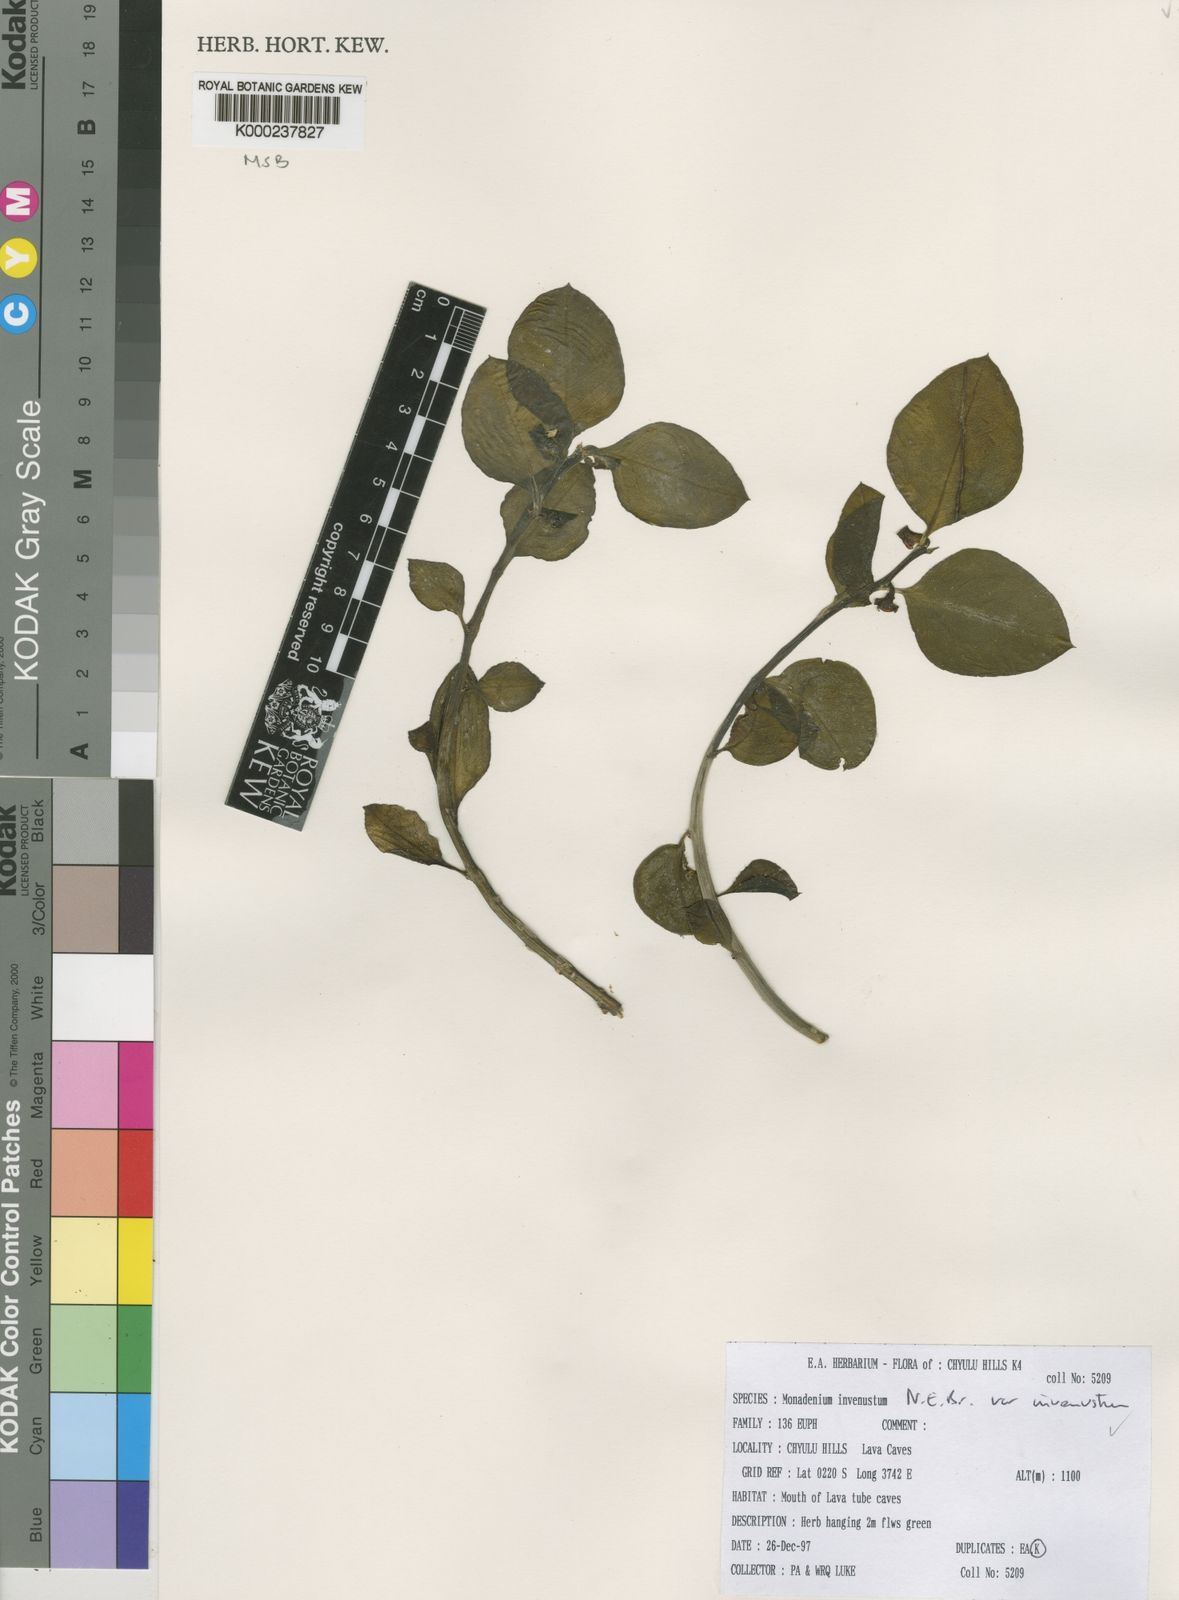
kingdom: Plantae
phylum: Tracheophyta
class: Magnoliopsida
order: Malpighiales
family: Euphorbiaceae
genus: Euphorbia
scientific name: Euphorbia invenusta
